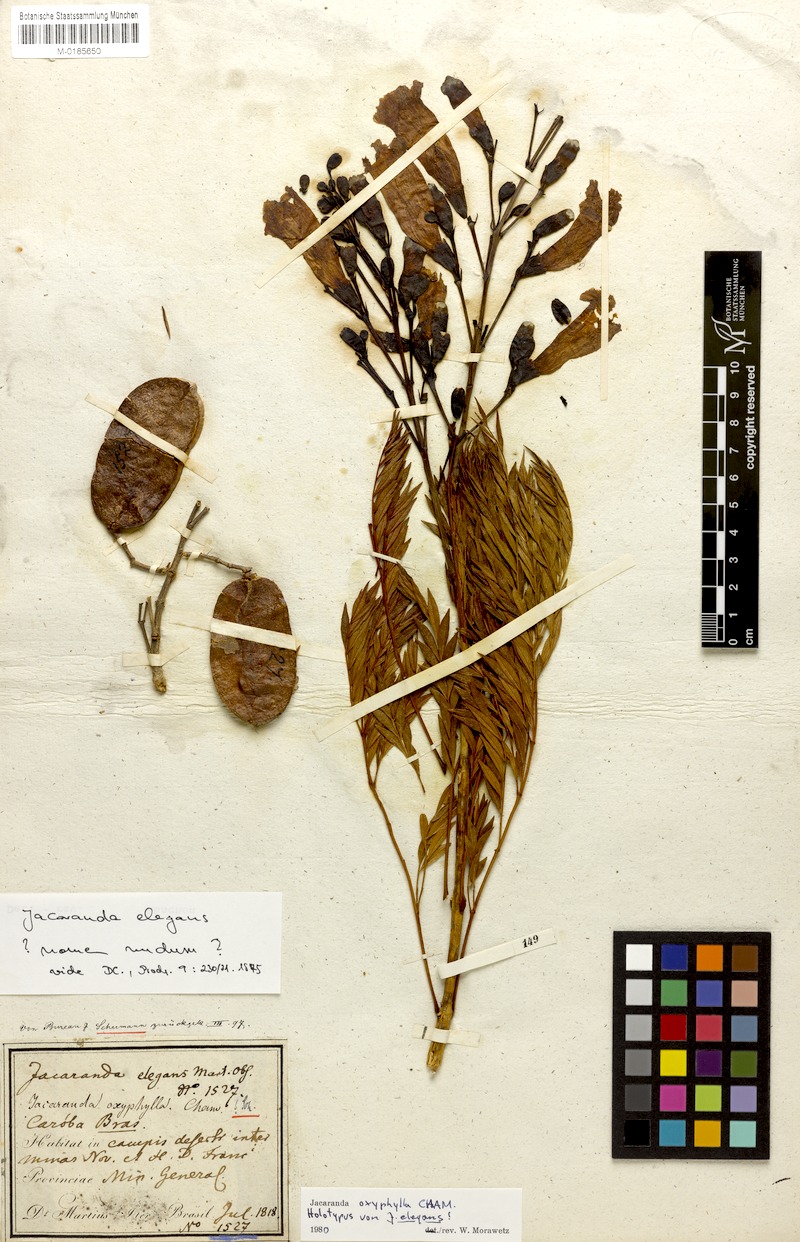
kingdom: Plantae
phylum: Tracheophyta
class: Magnoliopsida
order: Lamiales
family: Bignoniaceae
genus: Jacaranda
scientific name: Jacaranda caroba
